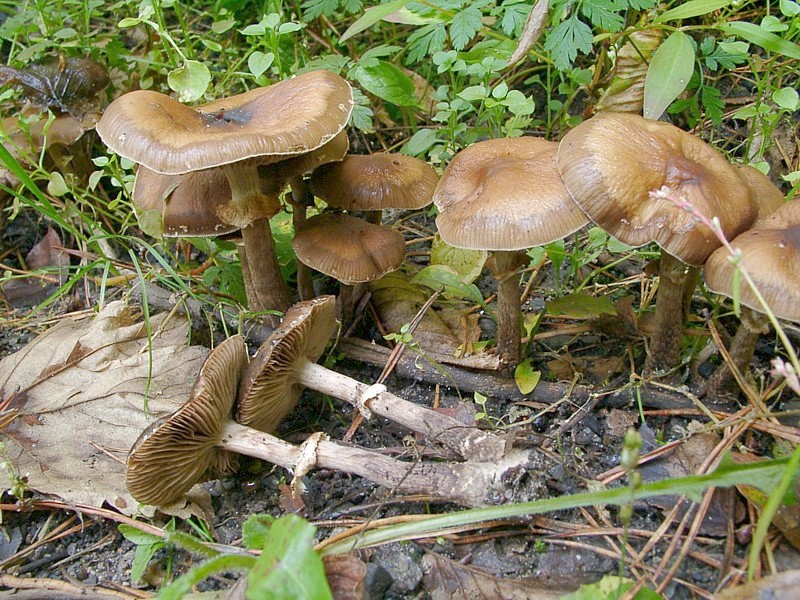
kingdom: Fungi
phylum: Basidiomycota
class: Agaricomycetes
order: Agaricales
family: Tubariaceae
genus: Cyclocybe
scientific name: Cyclocybe erebia
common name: Dark fieldcap
